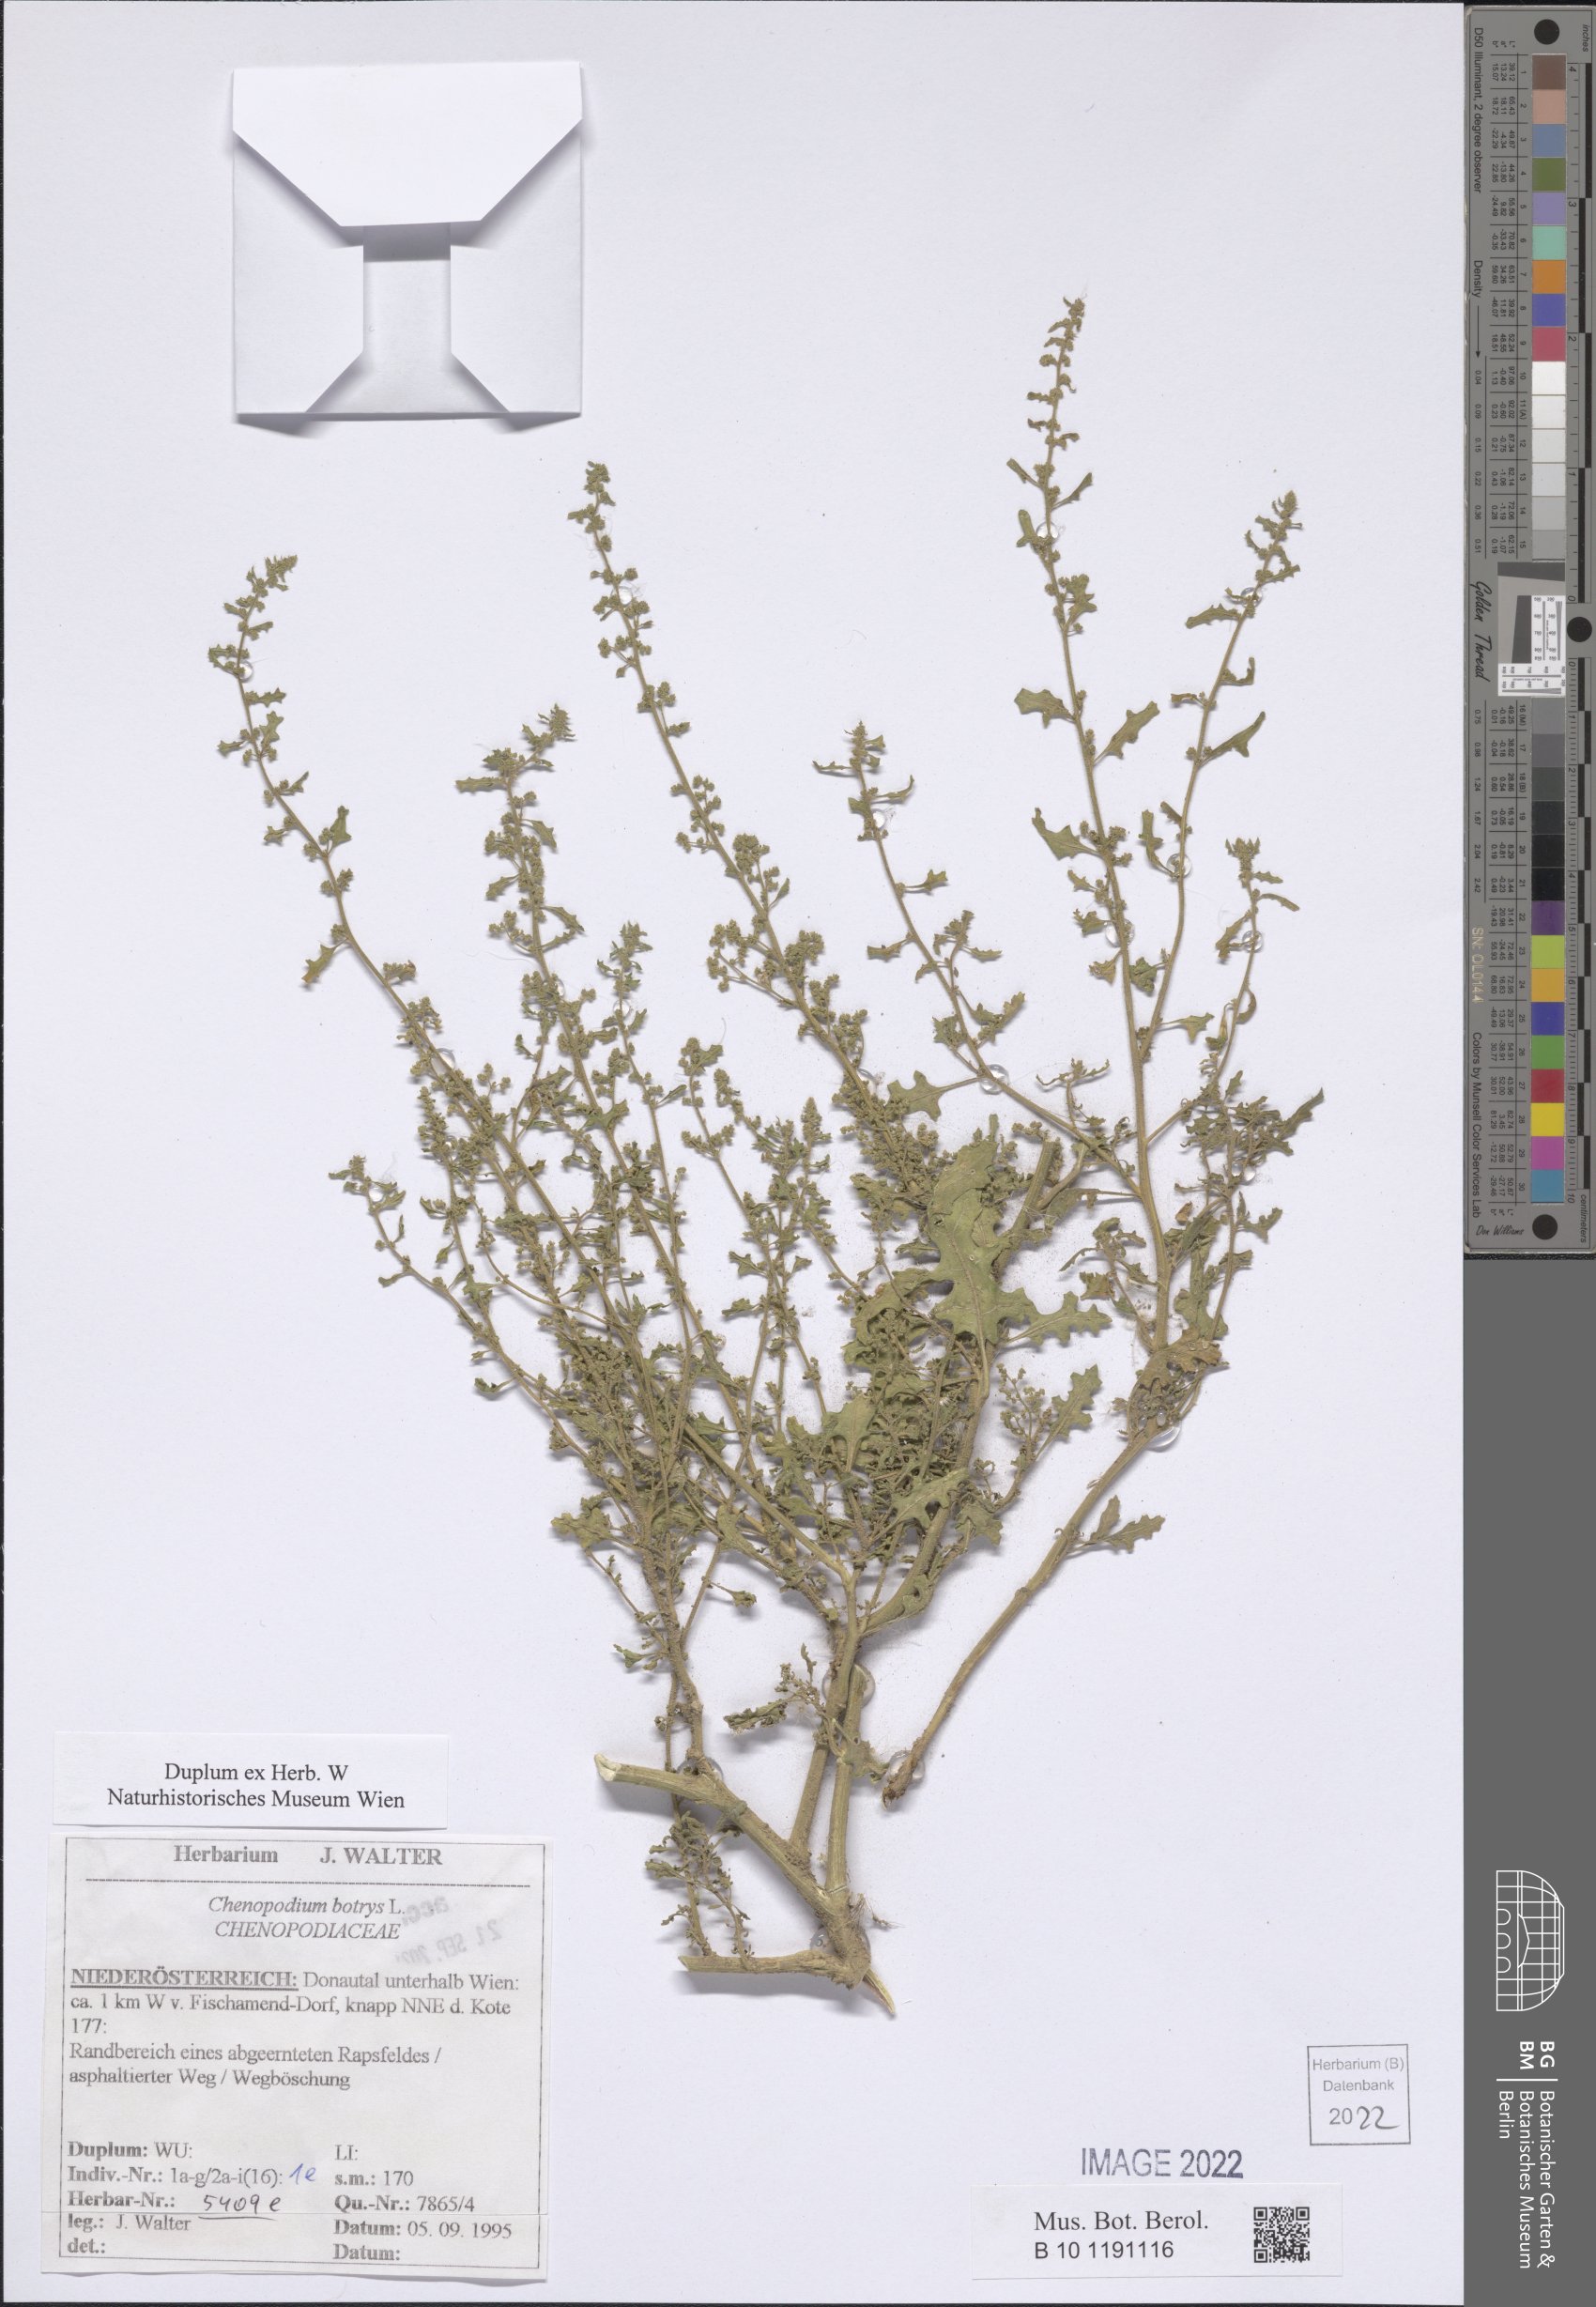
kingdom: Plantae
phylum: Tracheophyta
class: Magnoliopsida
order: Caryophyllales
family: Amaranthaceae
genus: Dysphania
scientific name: Dysphania botrys
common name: Feather-geranium
